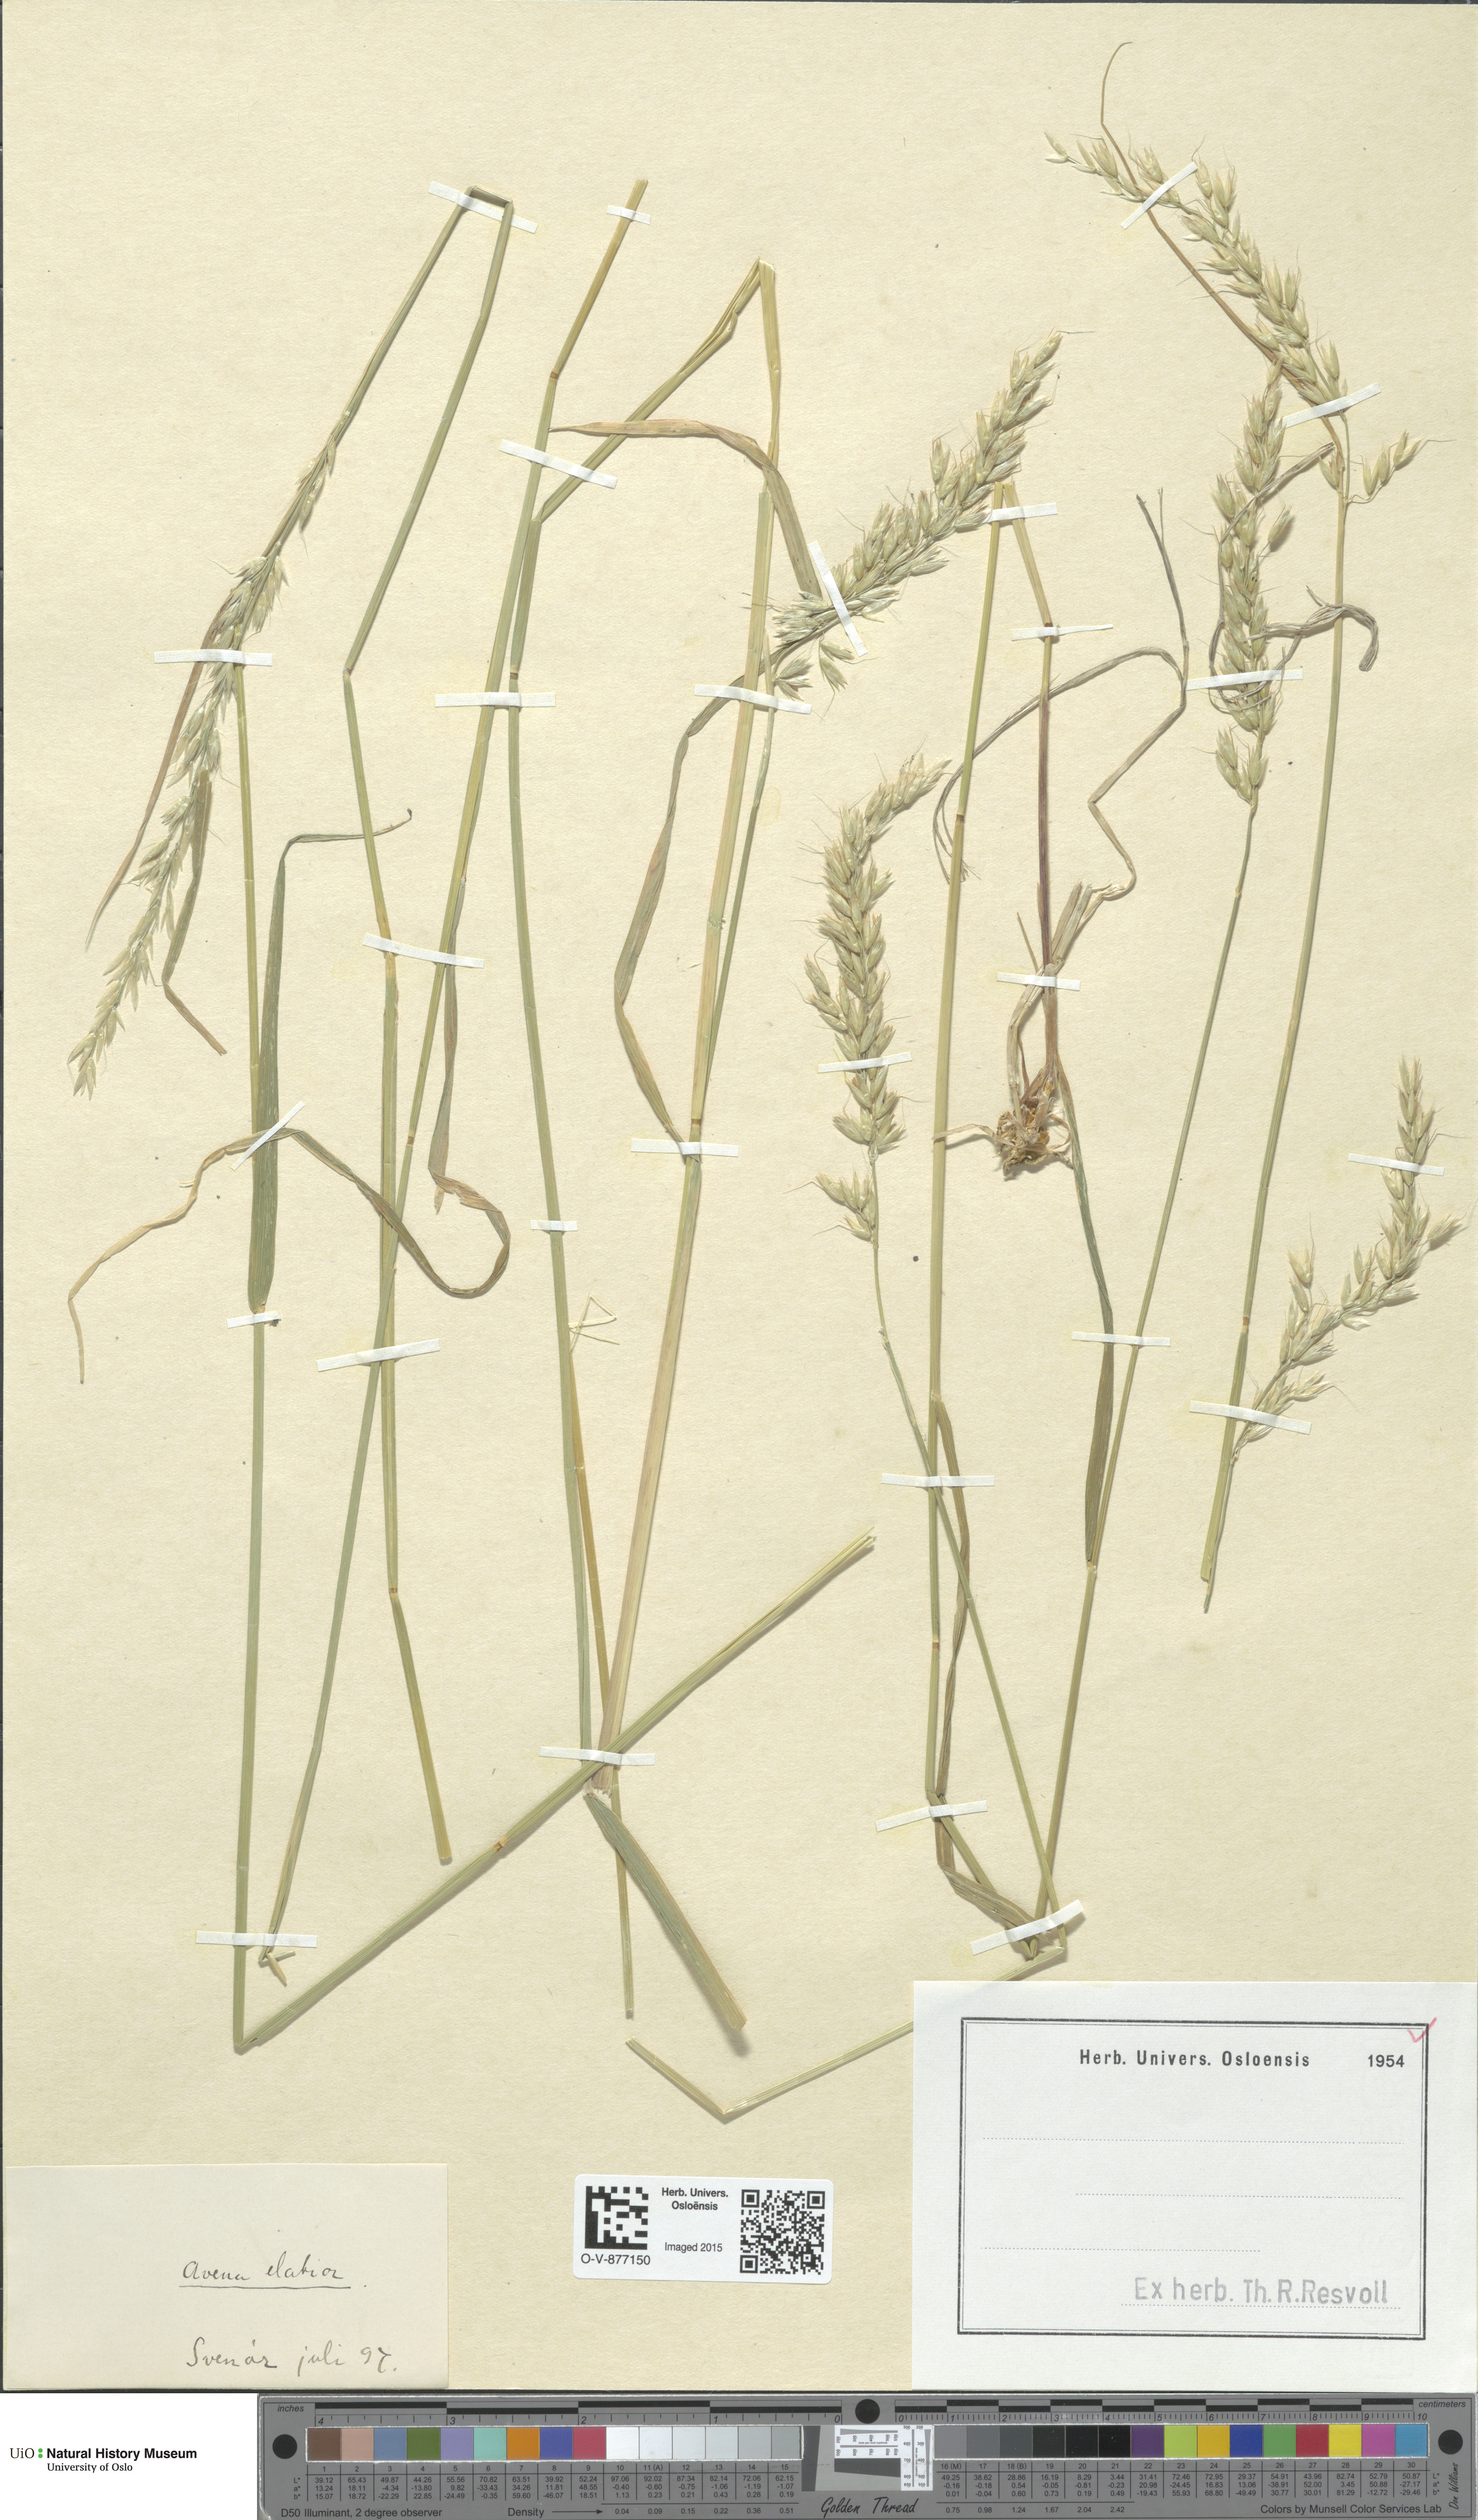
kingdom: Plantae
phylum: Tracheophyta
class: Liliopsida
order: Poales
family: Poaceae
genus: Arrhenatherum
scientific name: Arrhenatherum elatius
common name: Tall oatgrass
